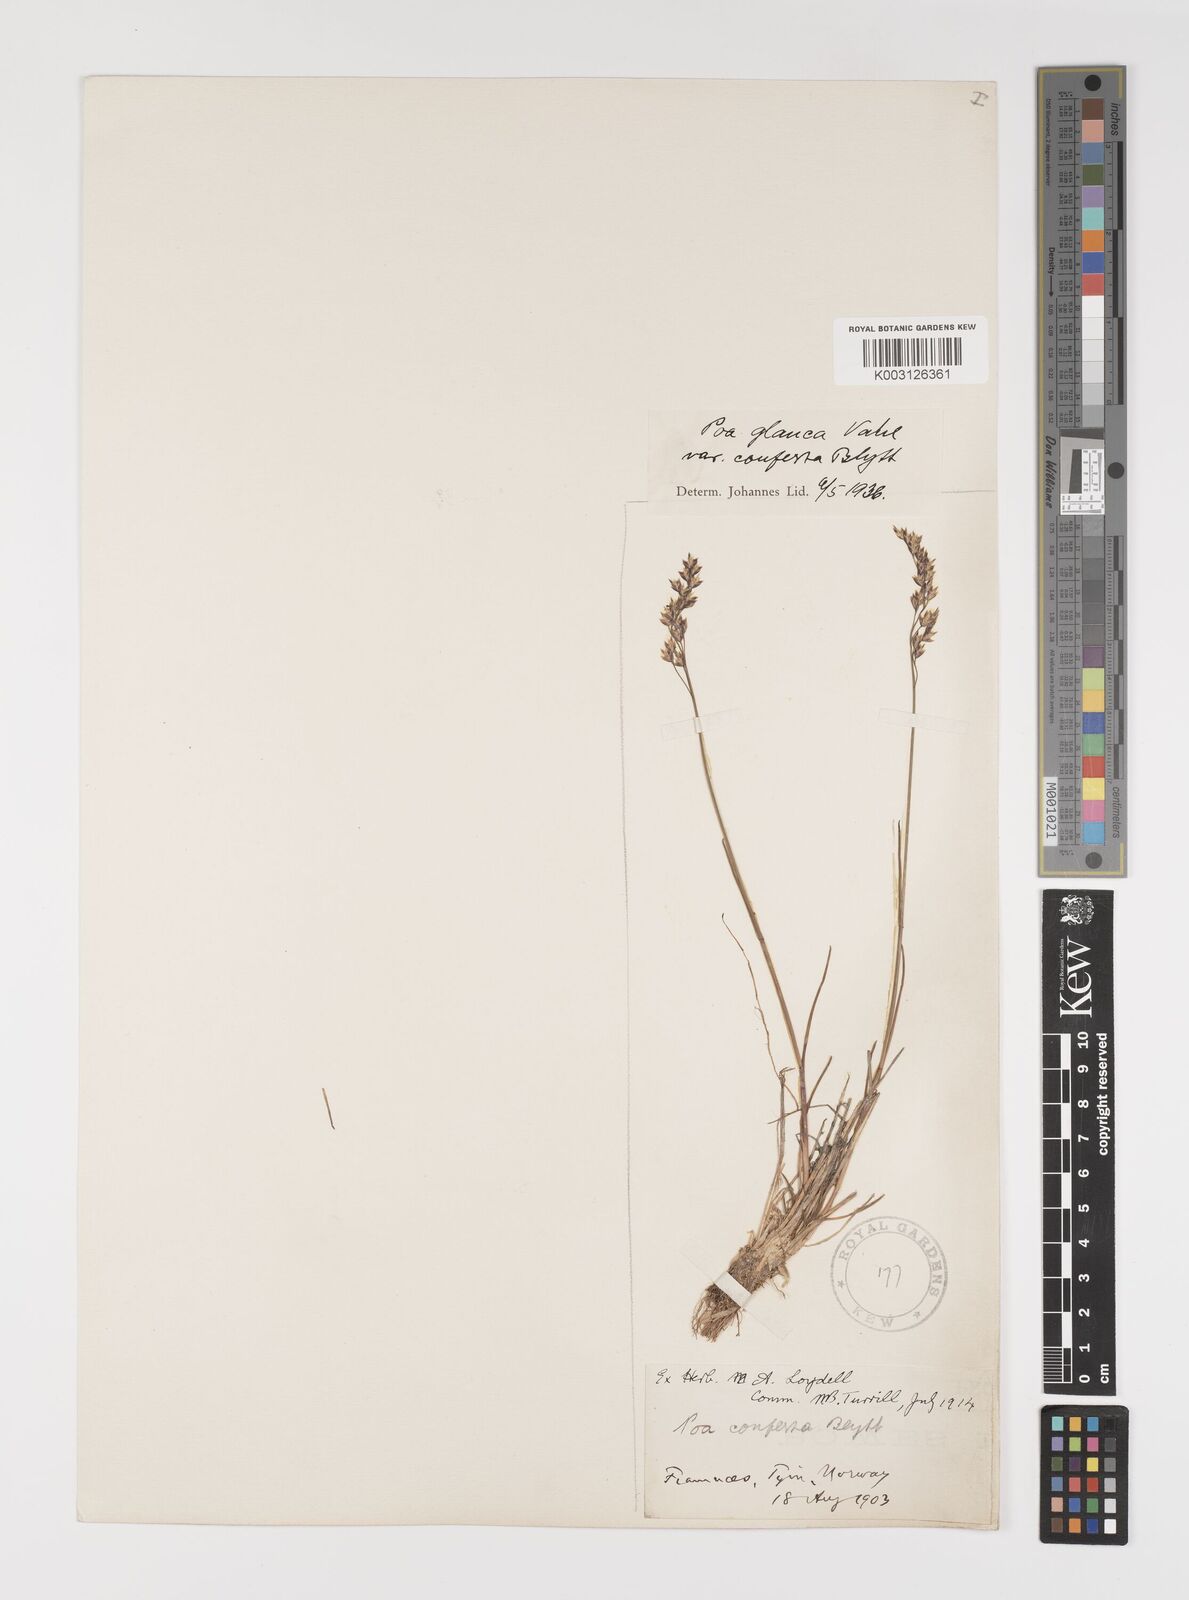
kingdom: Plantae
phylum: Tracheophyta
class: Liliopsida
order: Poales
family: Poaceae
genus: Poa
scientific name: Poa glauca
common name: Glaucous bluegrass
